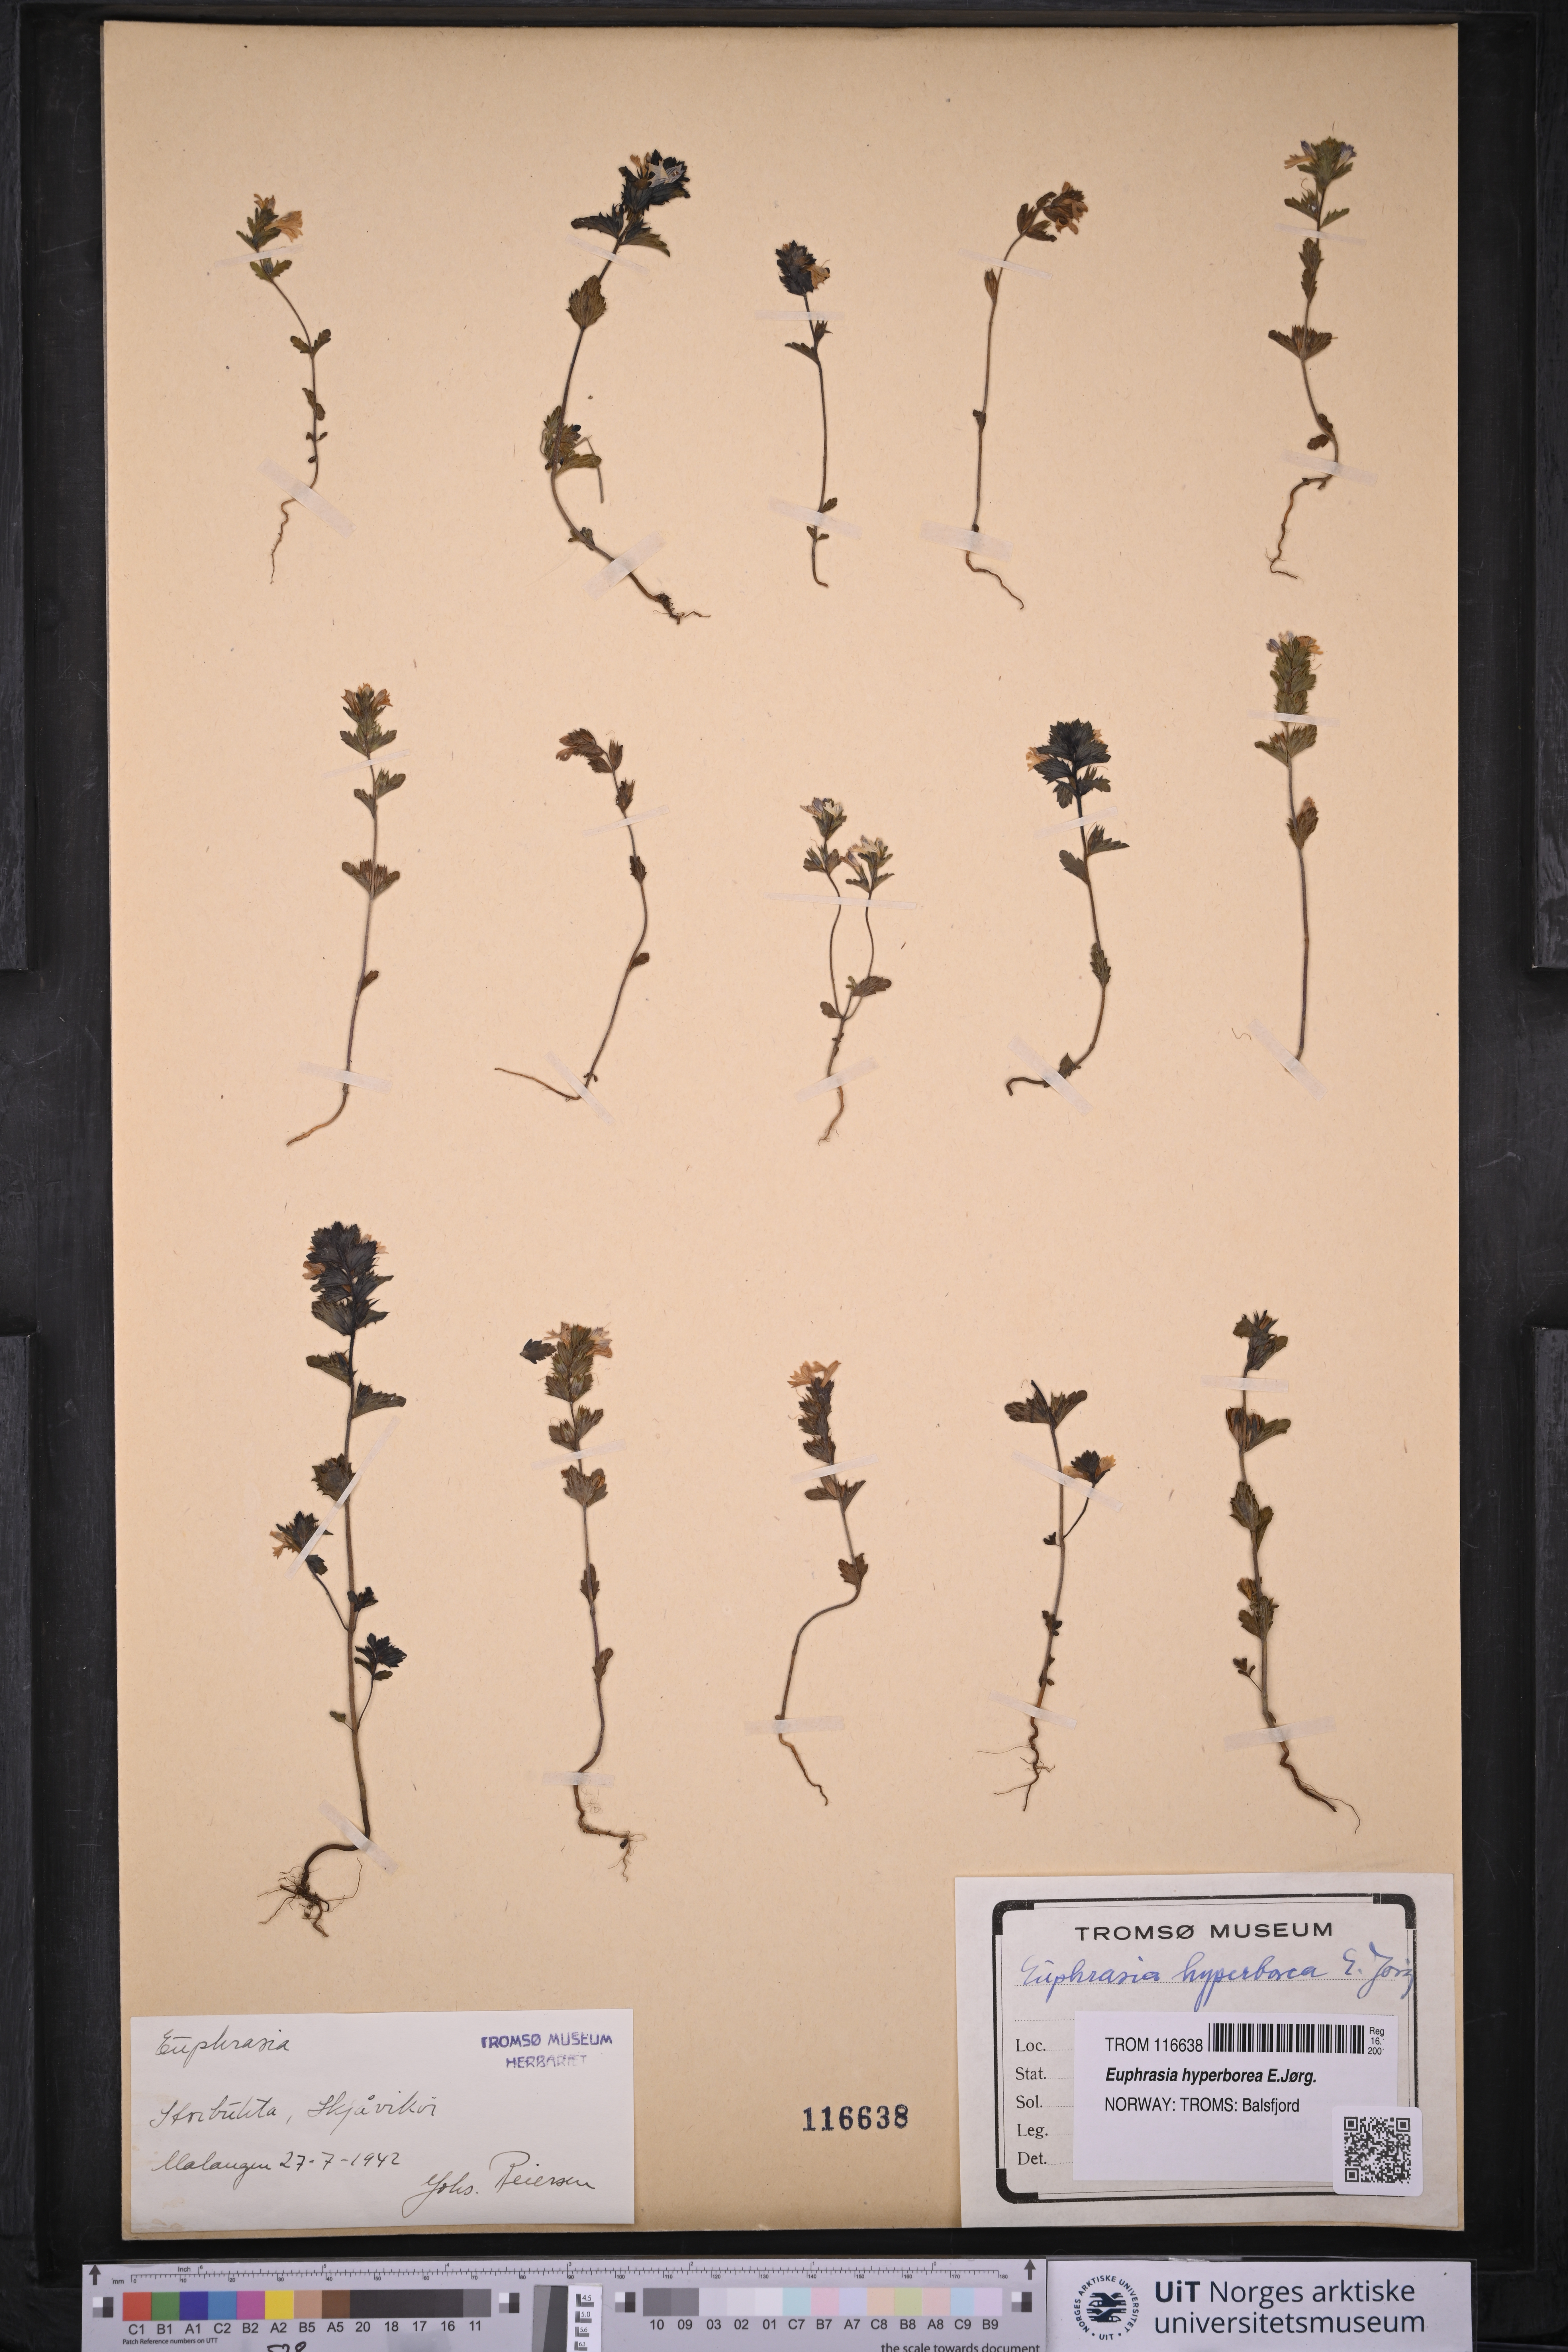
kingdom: Plantae
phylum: Tracheophyta
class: Magnoliopsida
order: Lamiales
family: Orobanchaceae
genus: Euphrasia
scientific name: Euphrasia hyperborea
